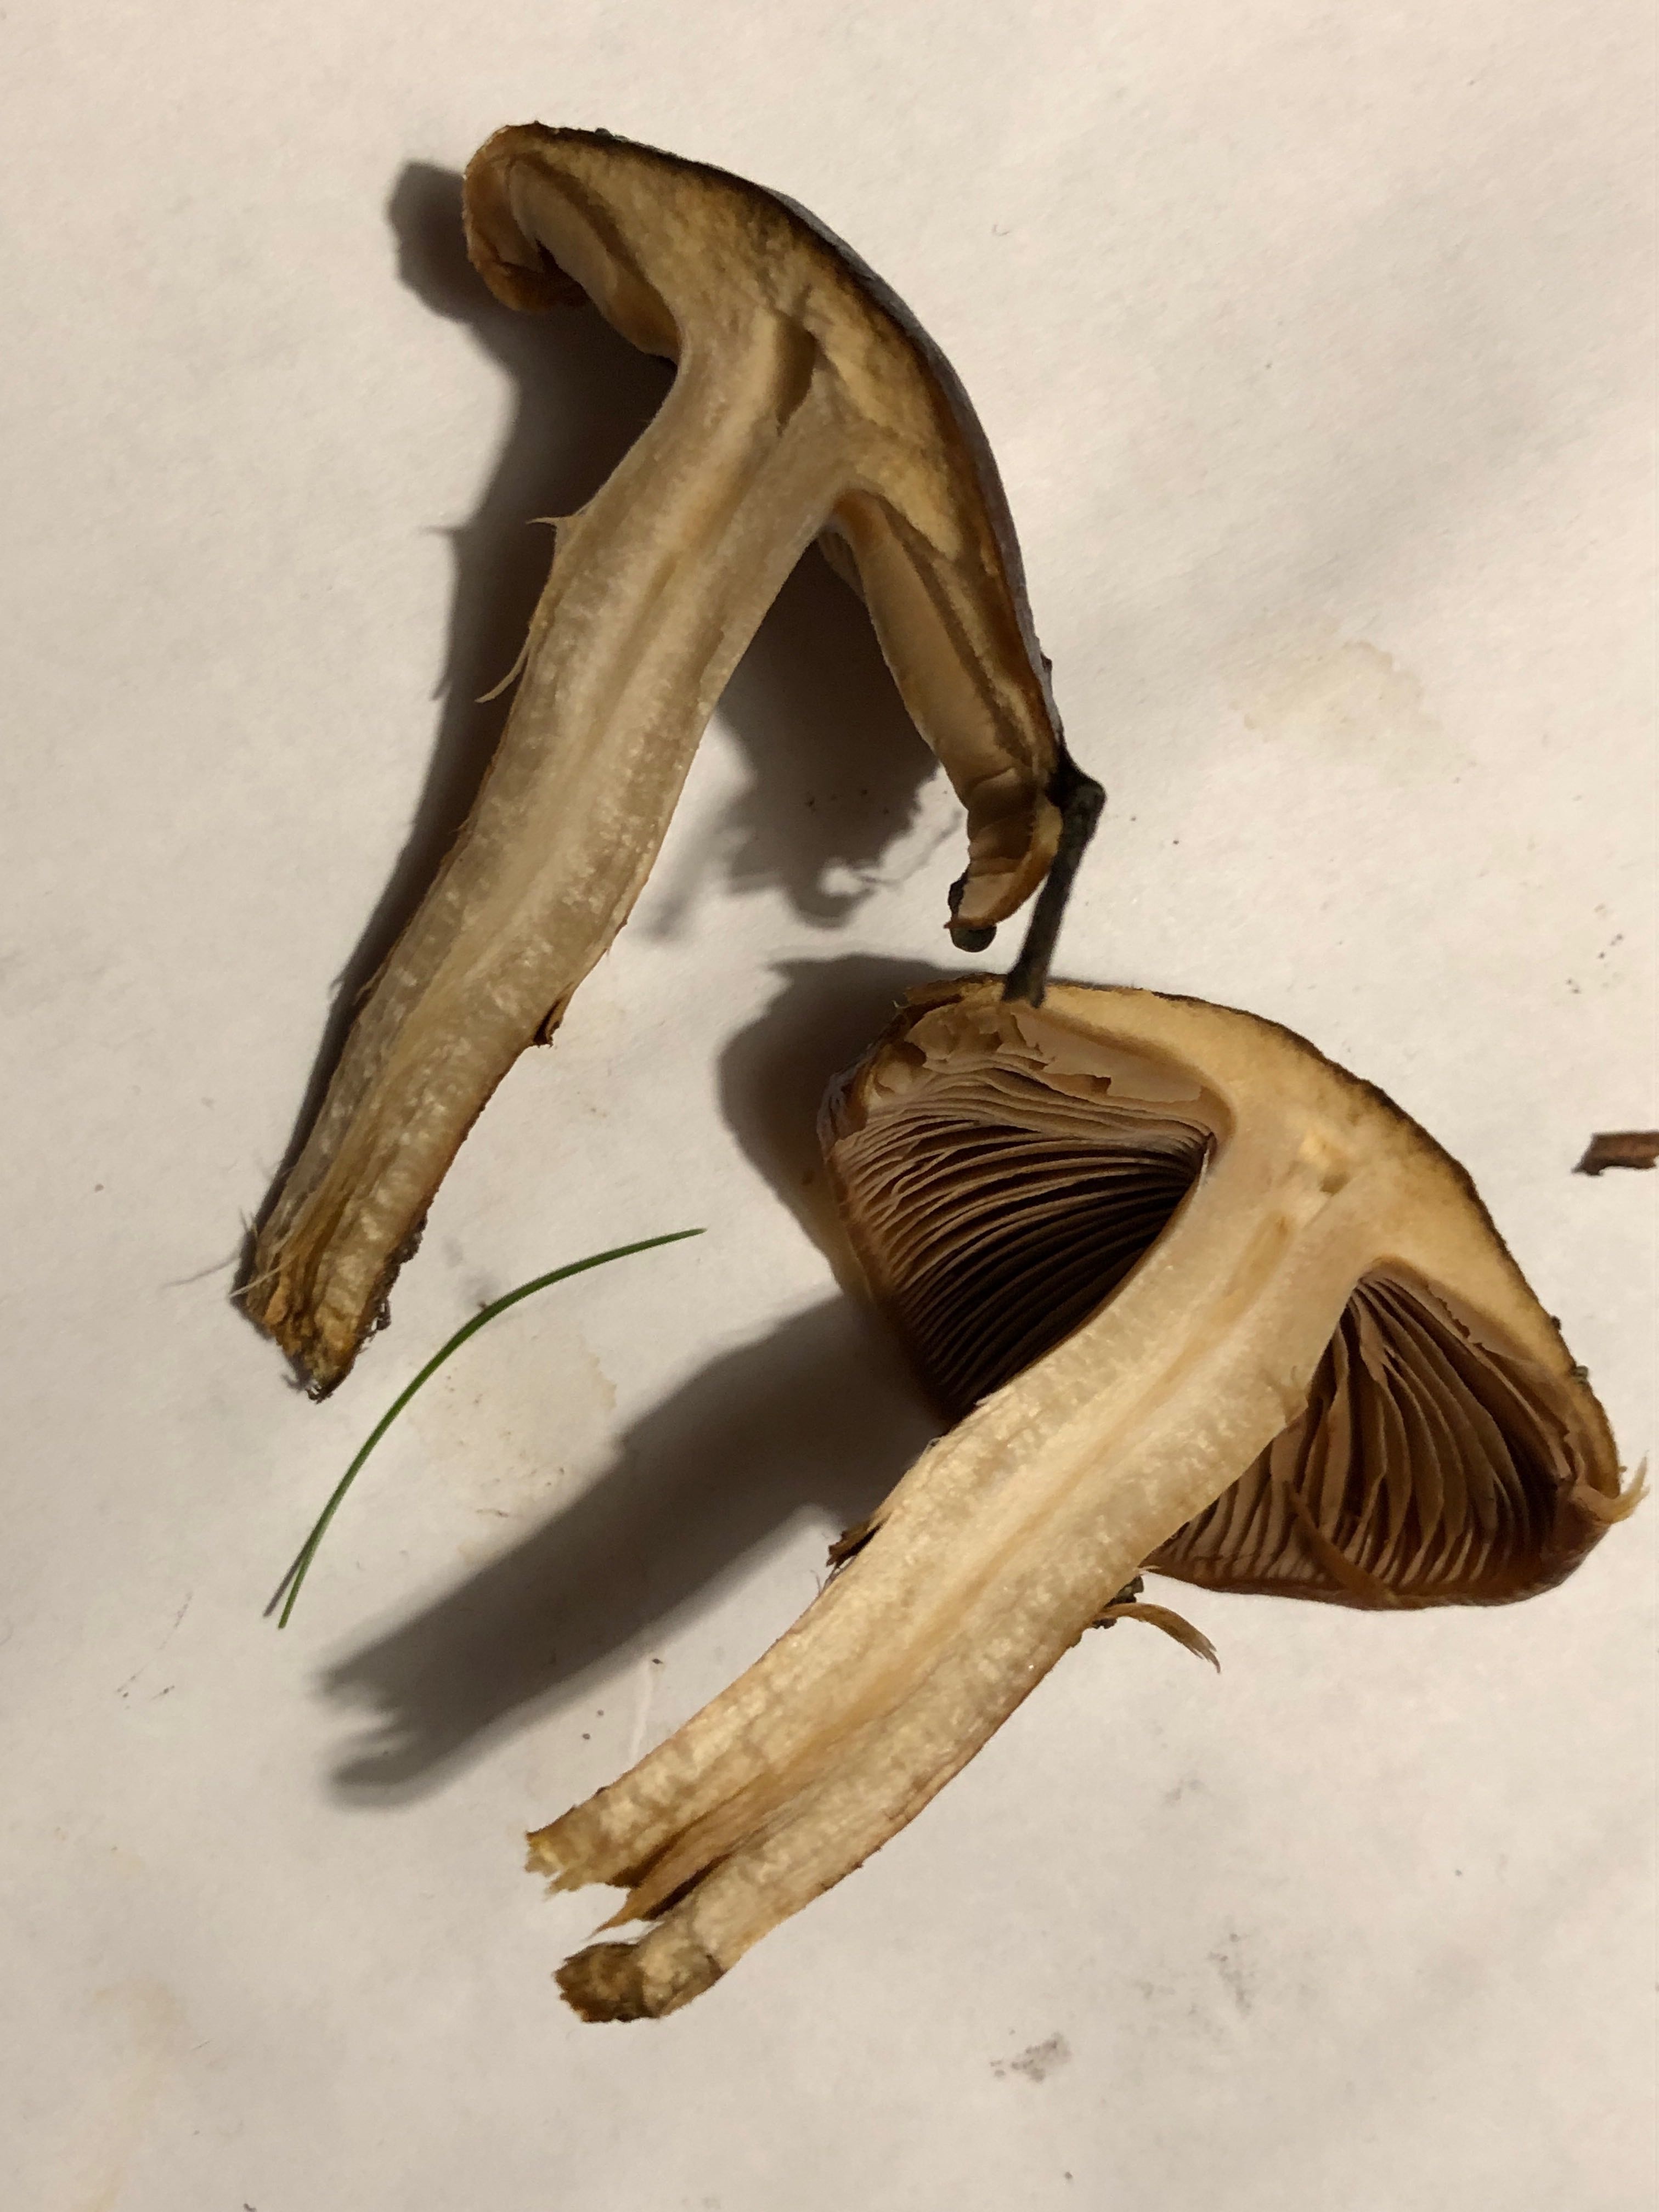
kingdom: Fungi
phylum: Basidiomycota
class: Agaricomycetes
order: Agaricales
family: Cortinariaceae
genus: Cortinarius
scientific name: Cortinarius trivialis
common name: Girdled webcap
